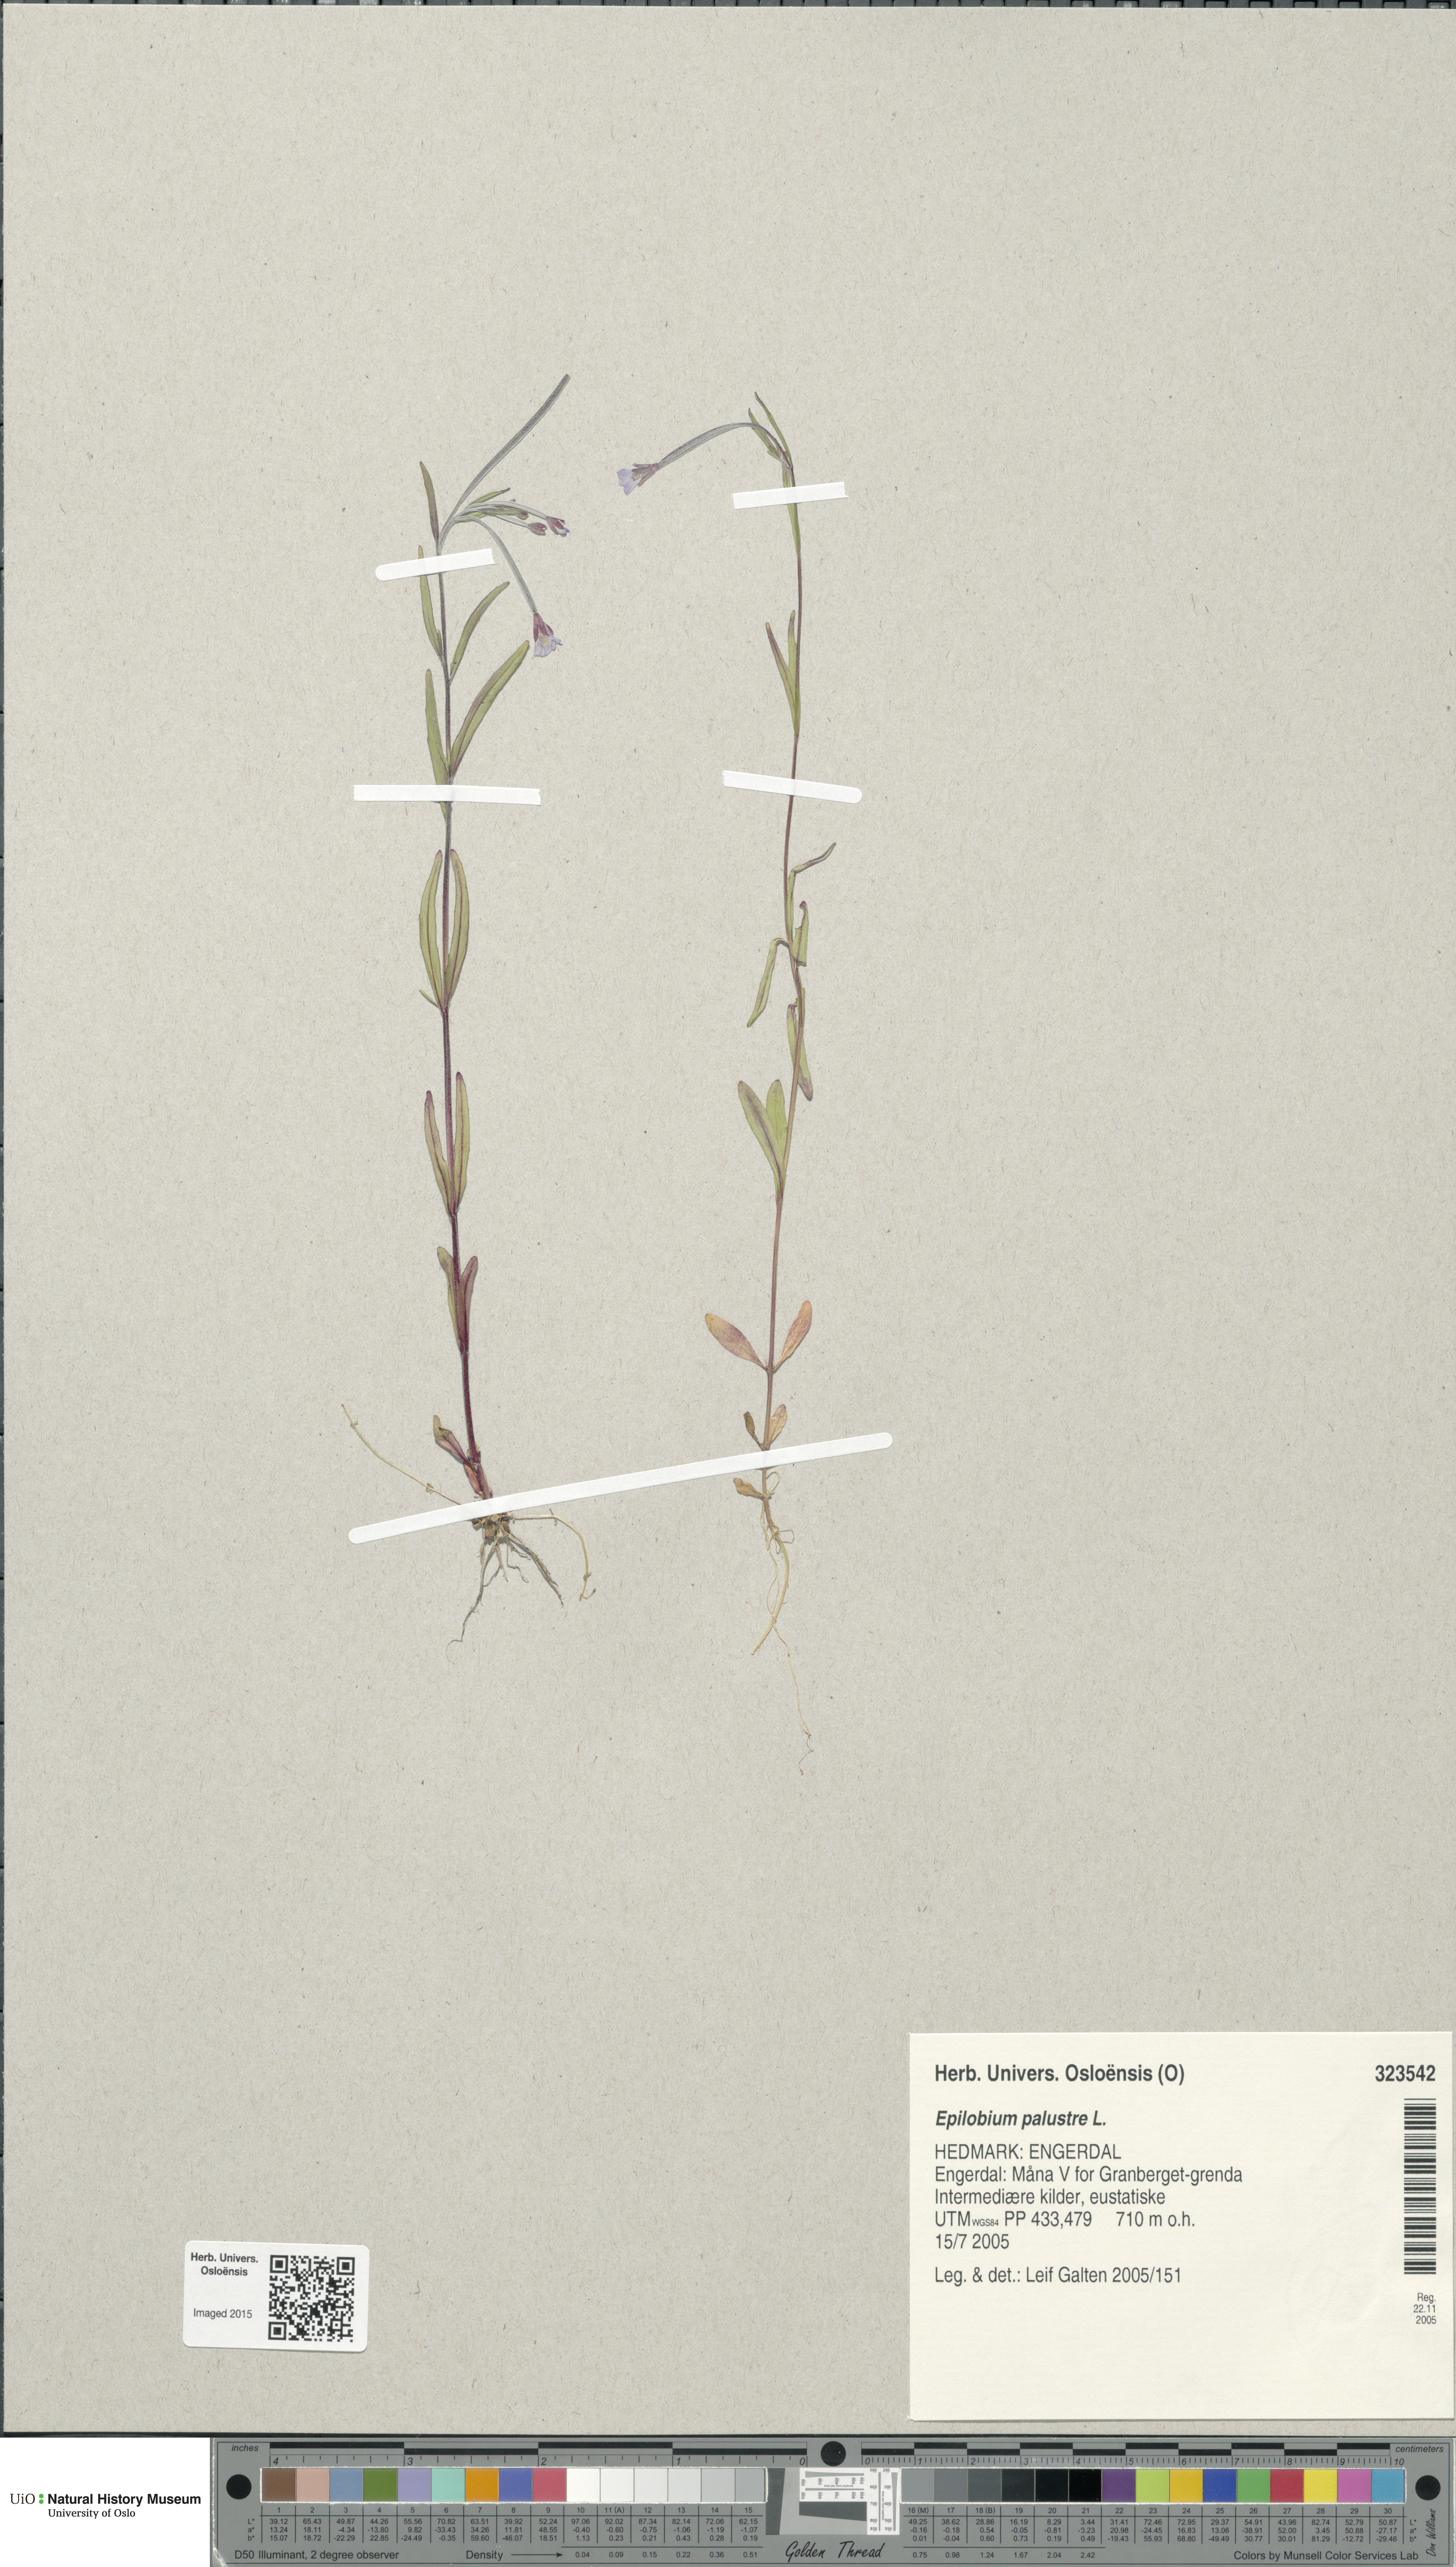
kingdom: Plantae
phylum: Tracheophyta
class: Magnoliopsida
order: Myrtales
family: Onagraceae
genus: Epilobium
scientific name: Epilobium palustre
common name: Marsh willowherb
